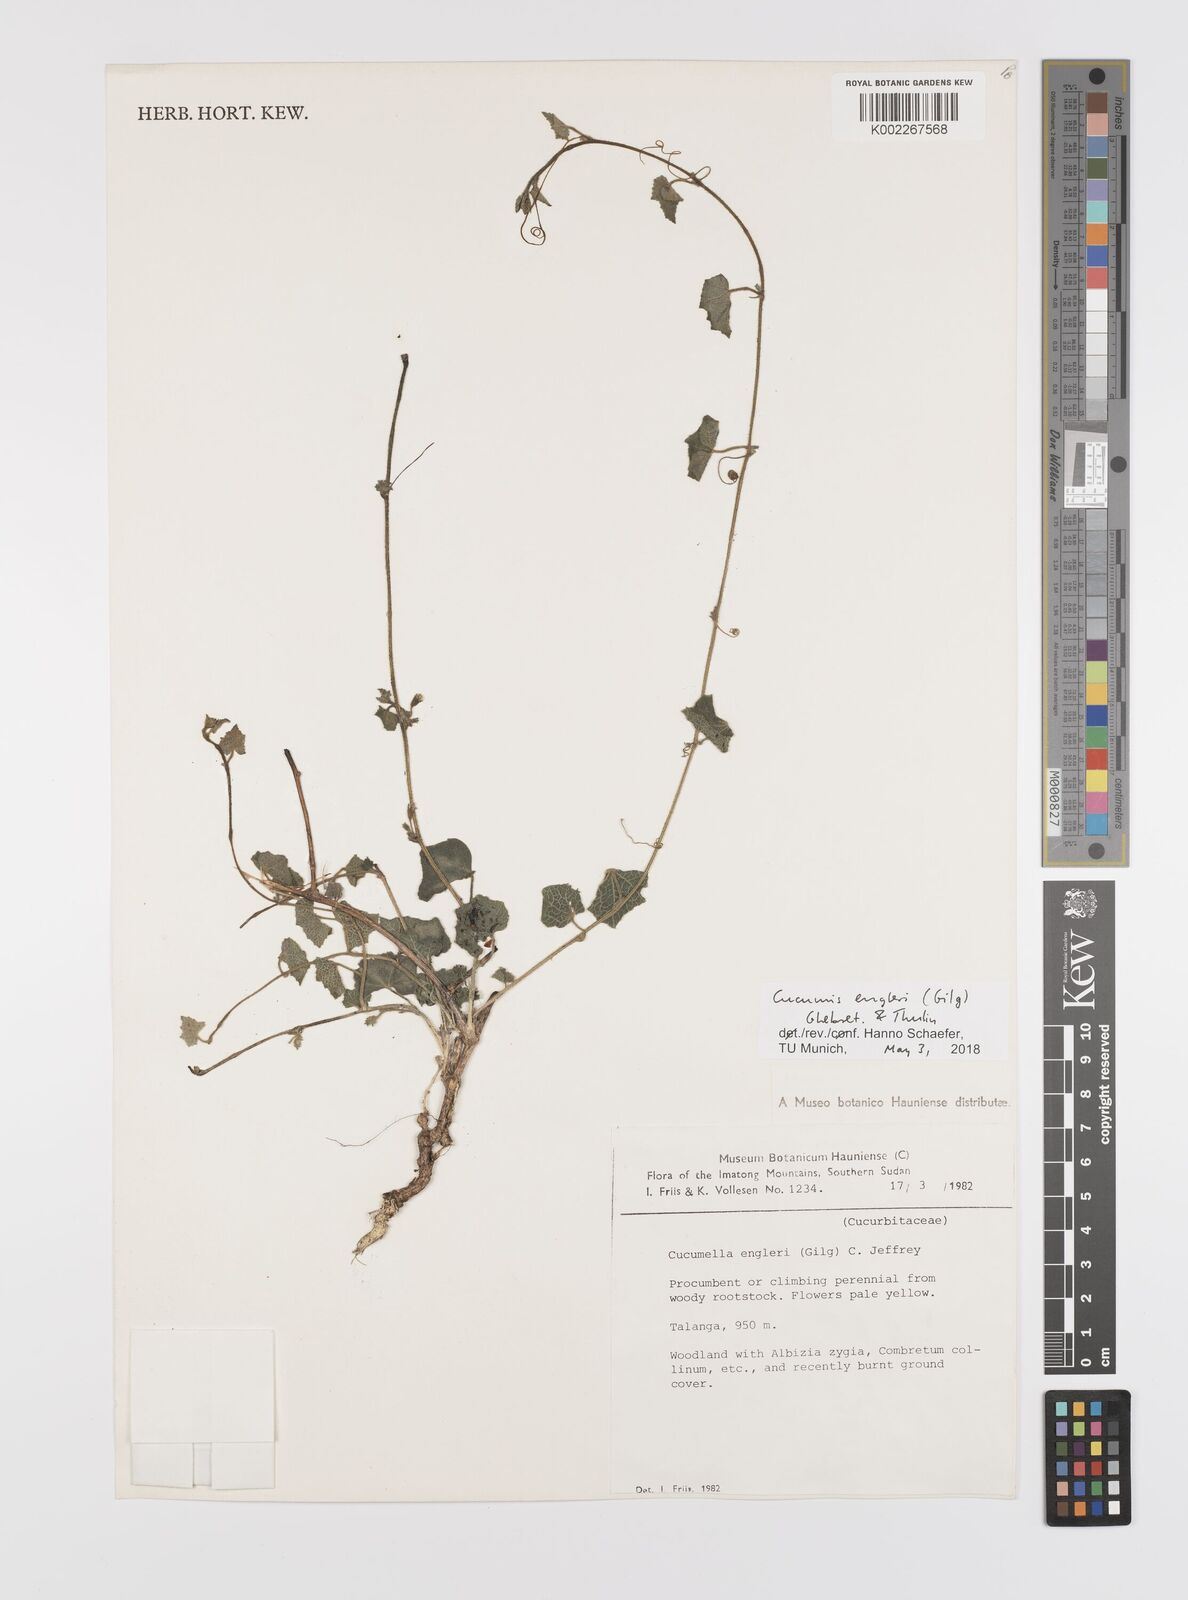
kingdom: Plantae
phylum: Tracheophyta
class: Magnoliopsida
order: Cucurbitales
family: Cucurbitaceae
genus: Cucumis
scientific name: Cucumis engleri
